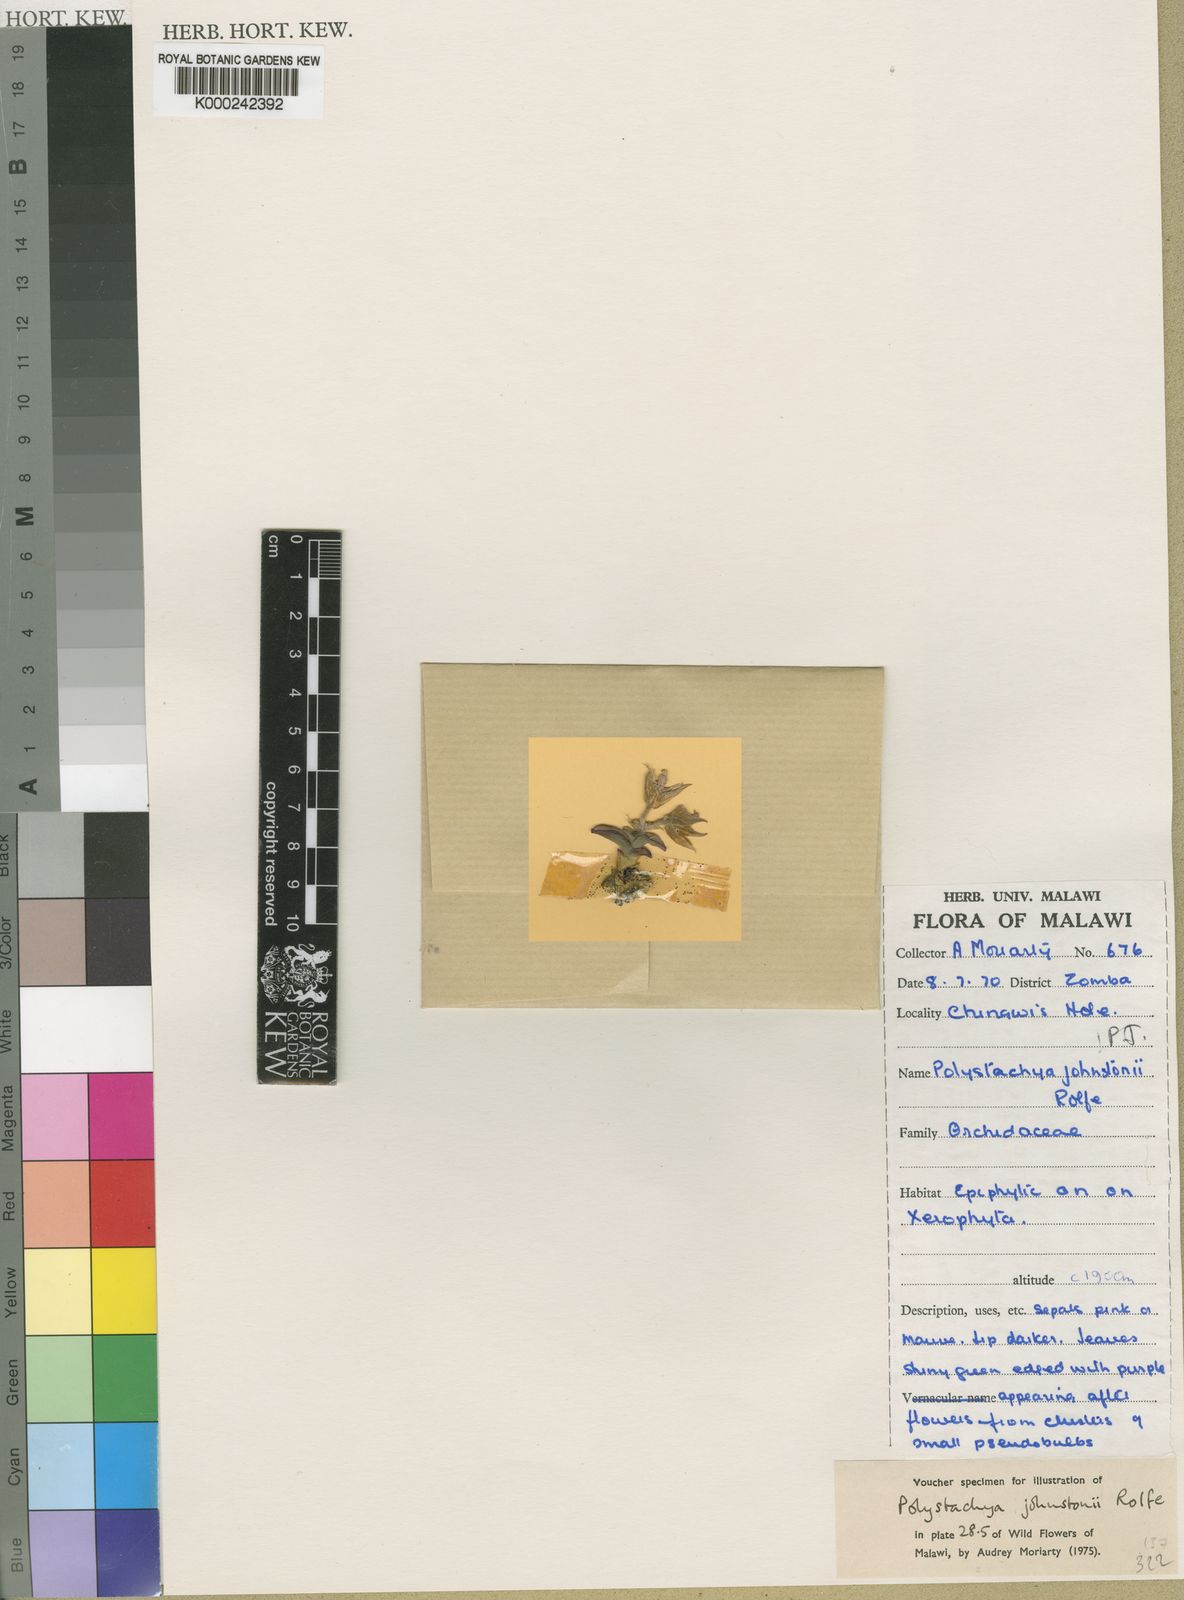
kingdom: Plantae
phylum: Tracheophyta
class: Liliopsida
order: Asparagales
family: Orchidaceae
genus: Polystachya
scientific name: Polystachya johnstonii
